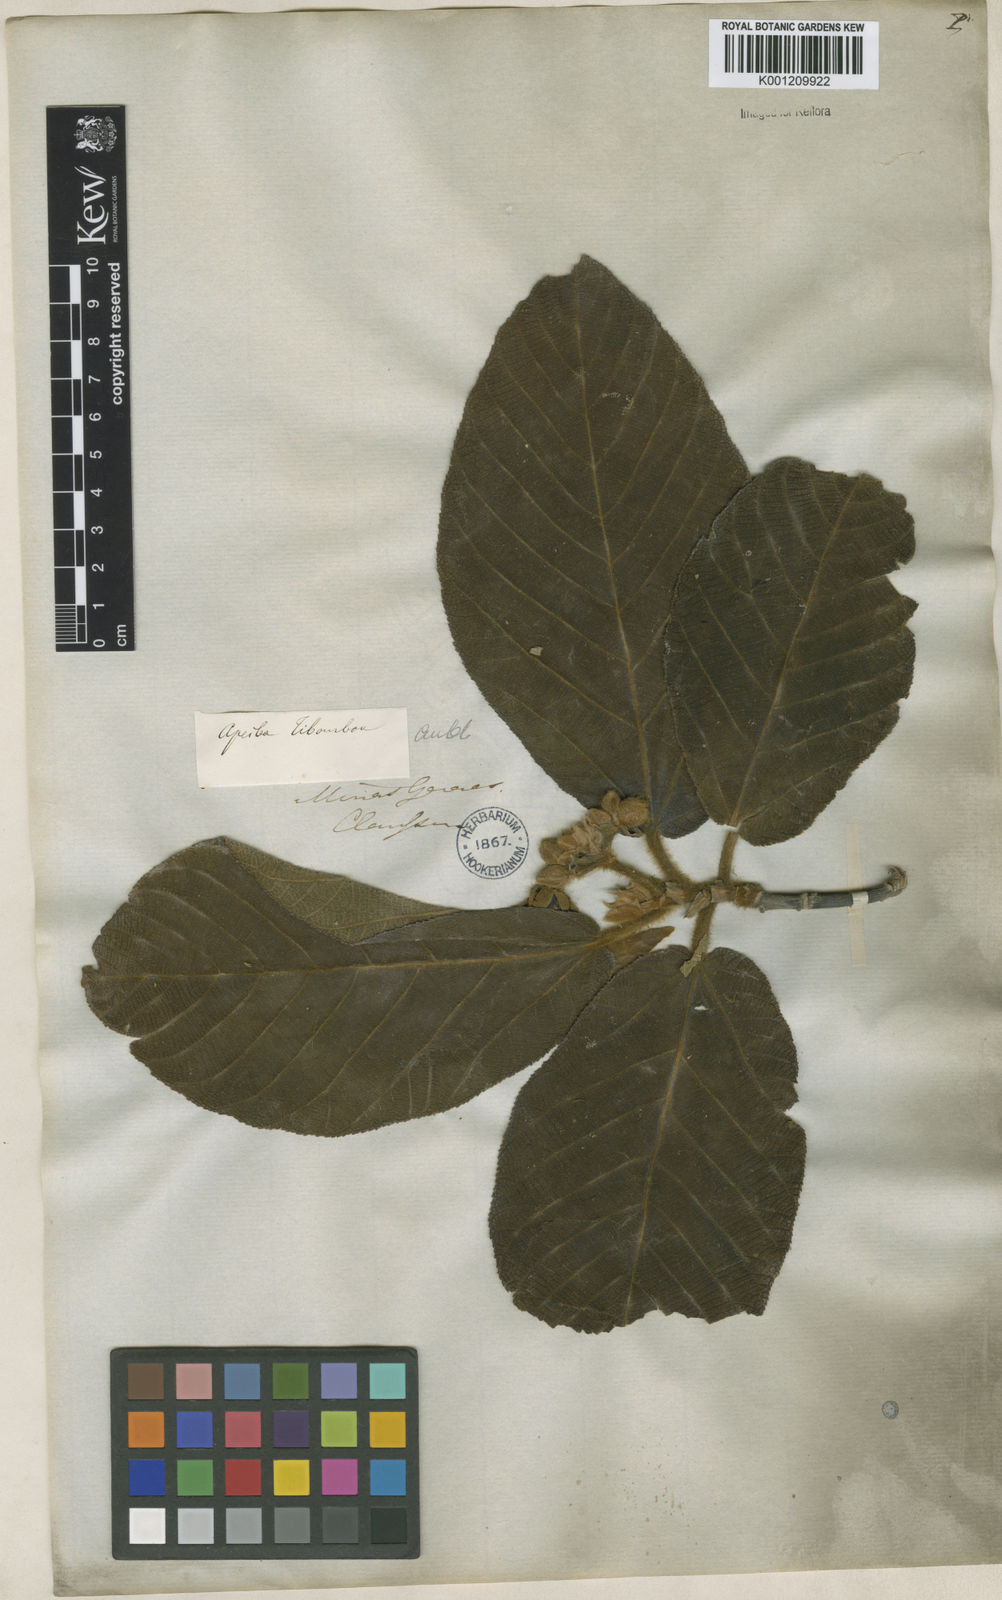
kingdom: Plantae
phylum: Tracheophyta
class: Magnoliopsida
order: Malvales
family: Malvaceae
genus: Apeiba
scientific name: Apeiba tibourbou
